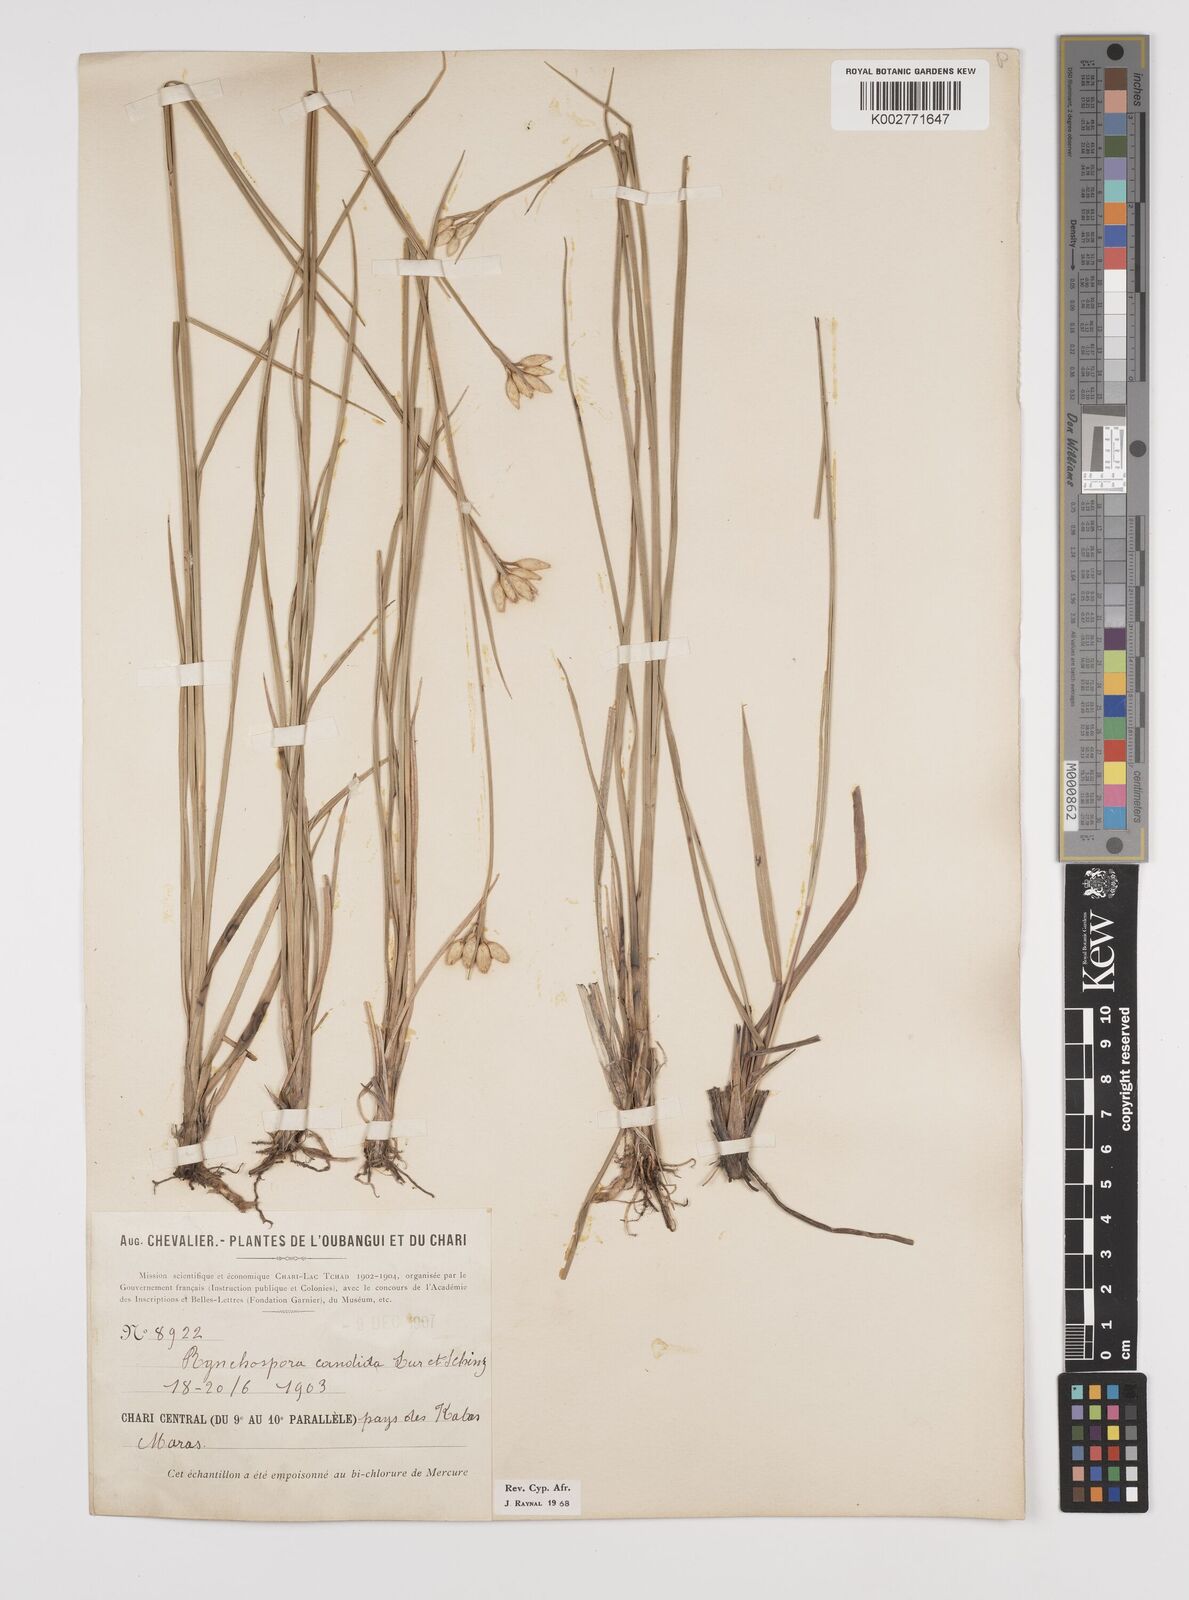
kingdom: Plantae
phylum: Tracheophyta
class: Liliopsida
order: Poales
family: Cyperaceae
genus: Rhynchospora
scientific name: Rhynchospora candida
